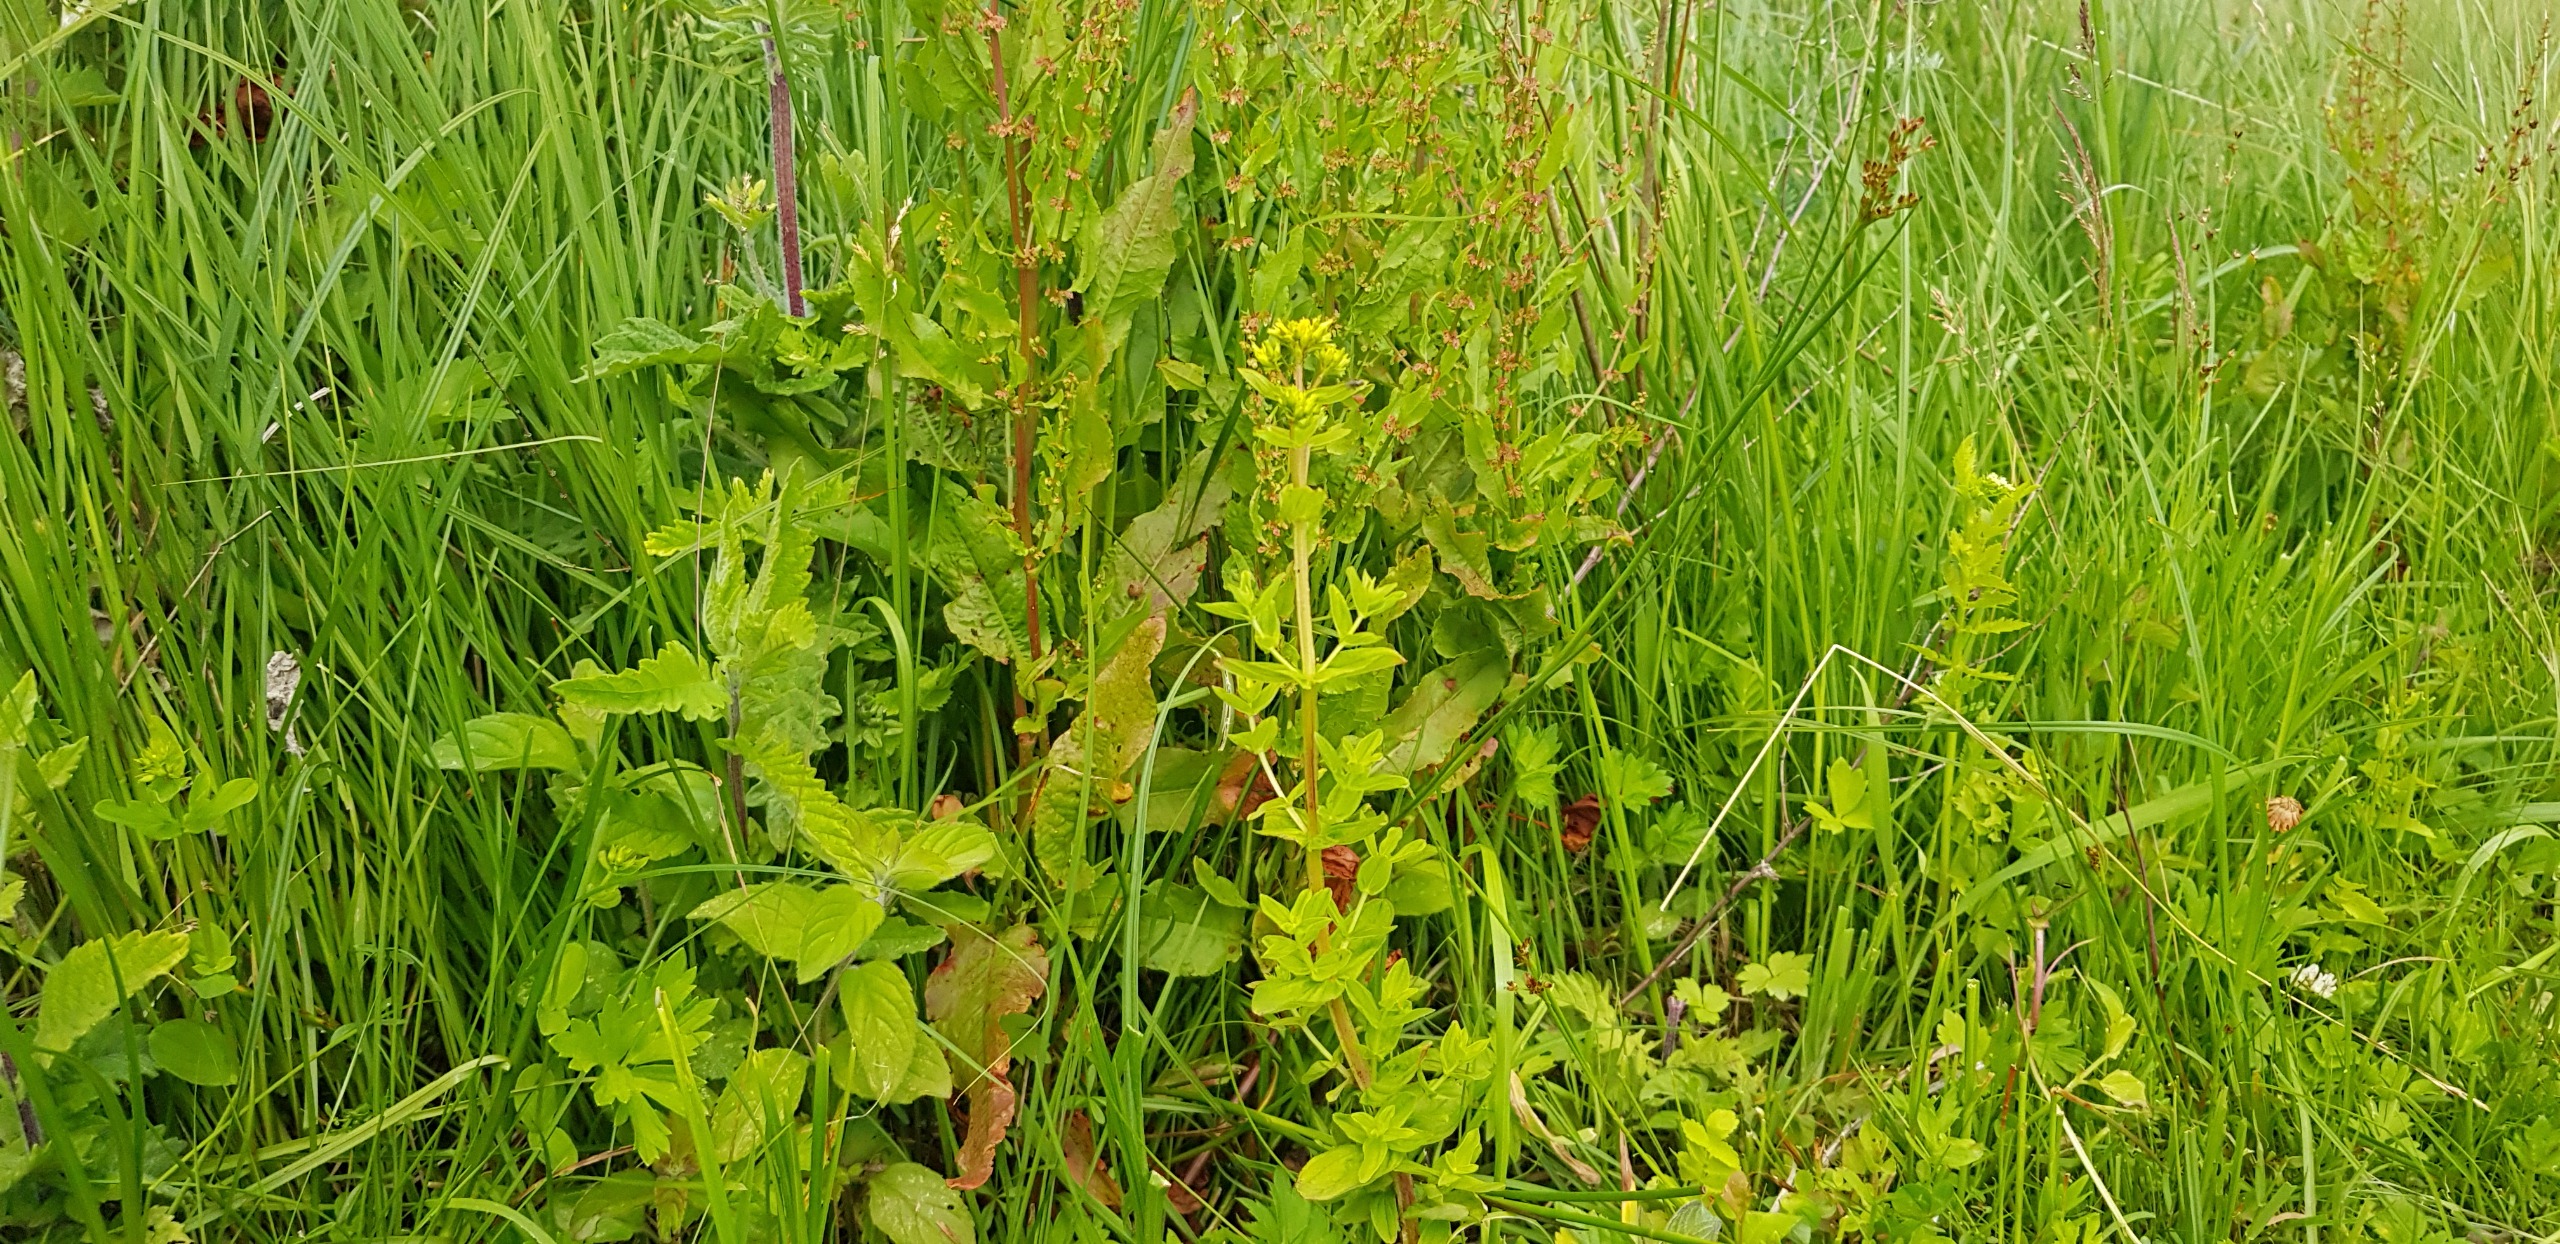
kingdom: Plantae
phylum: Tracheophyta
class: Magnoliopsida
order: Malpighiales
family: Hypericaceae
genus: Hypericum
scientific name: Hypericum tetrapterum
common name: Vinget perikon
